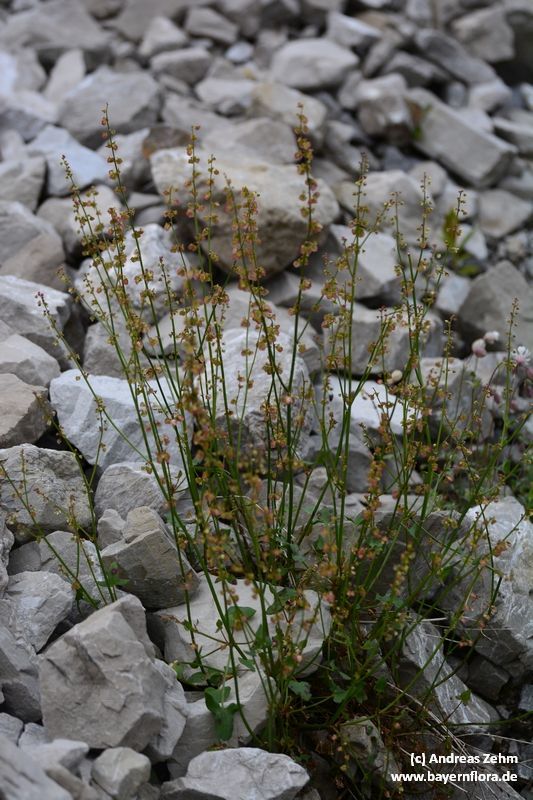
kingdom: Plantae
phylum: Tracheophyta
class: Magnoliopsida
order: Caryophyllales
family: Polygonaceae
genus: Rumex
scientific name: Rumex scutatus
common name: French sorrel
